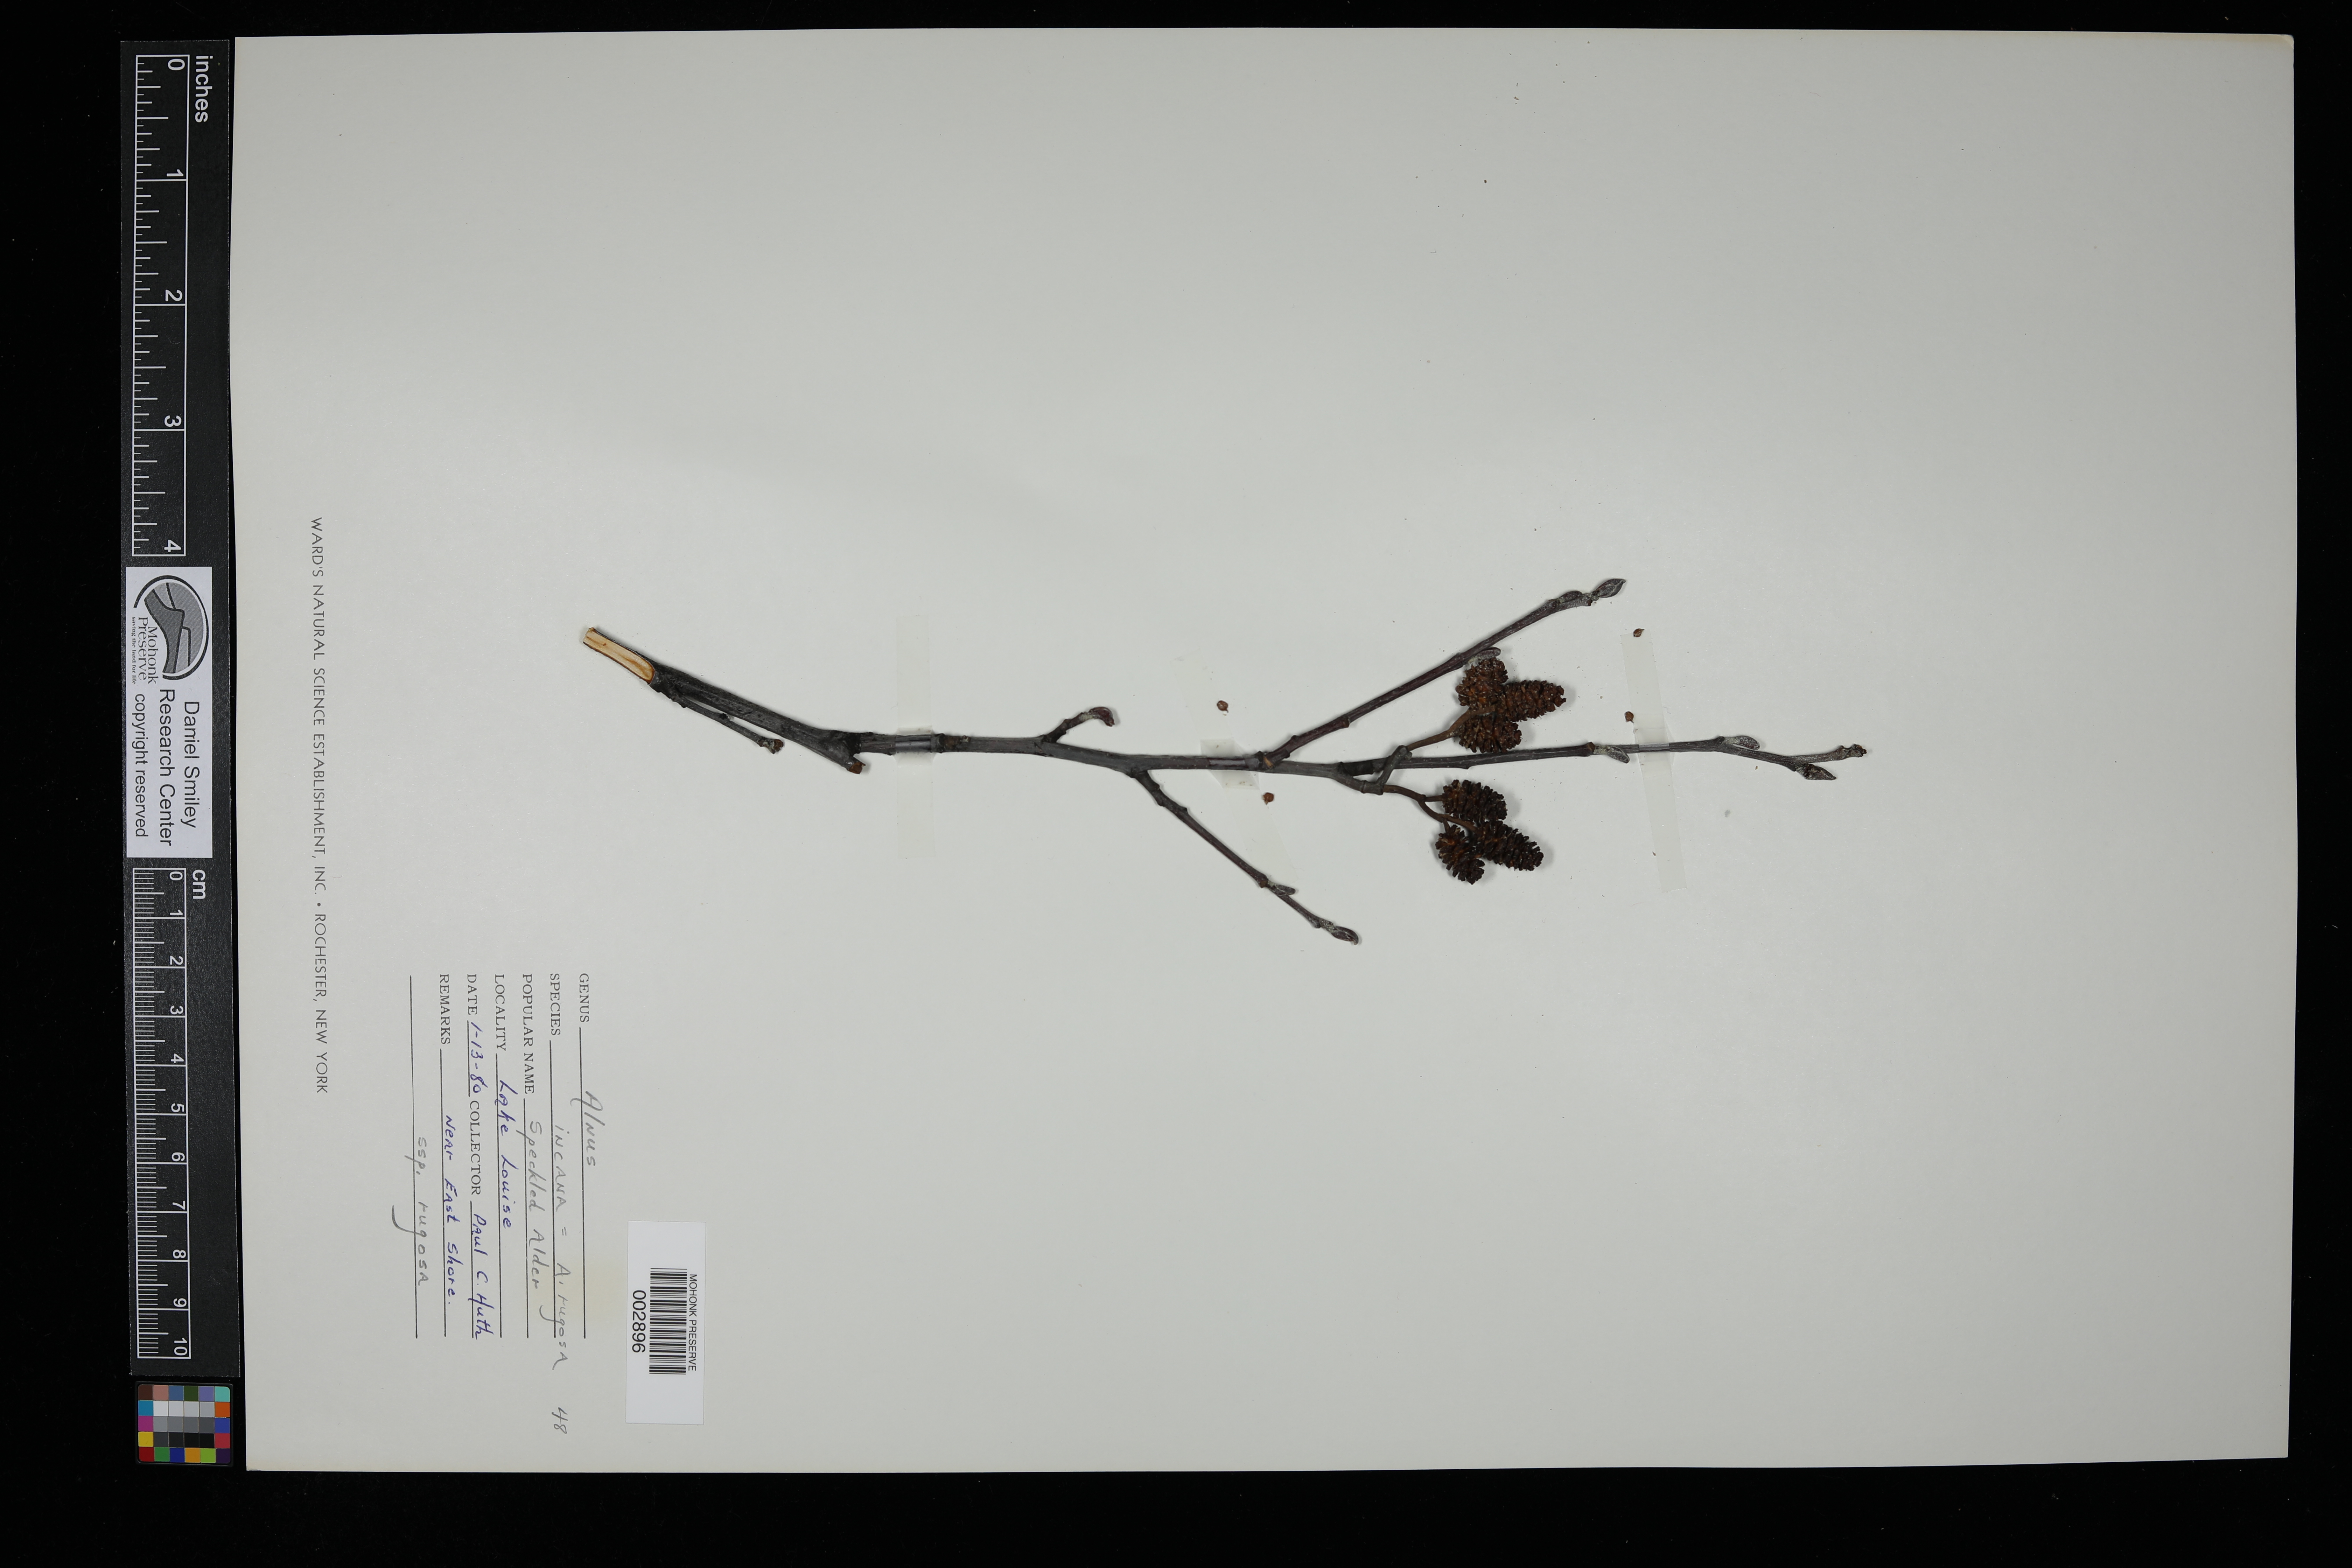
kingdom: Plantae
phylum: Tracheophyta
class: Magnoliopsida
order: Fagales
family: Betulaceae
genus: Alnus
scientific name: Alnus incana
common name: Grey alder
